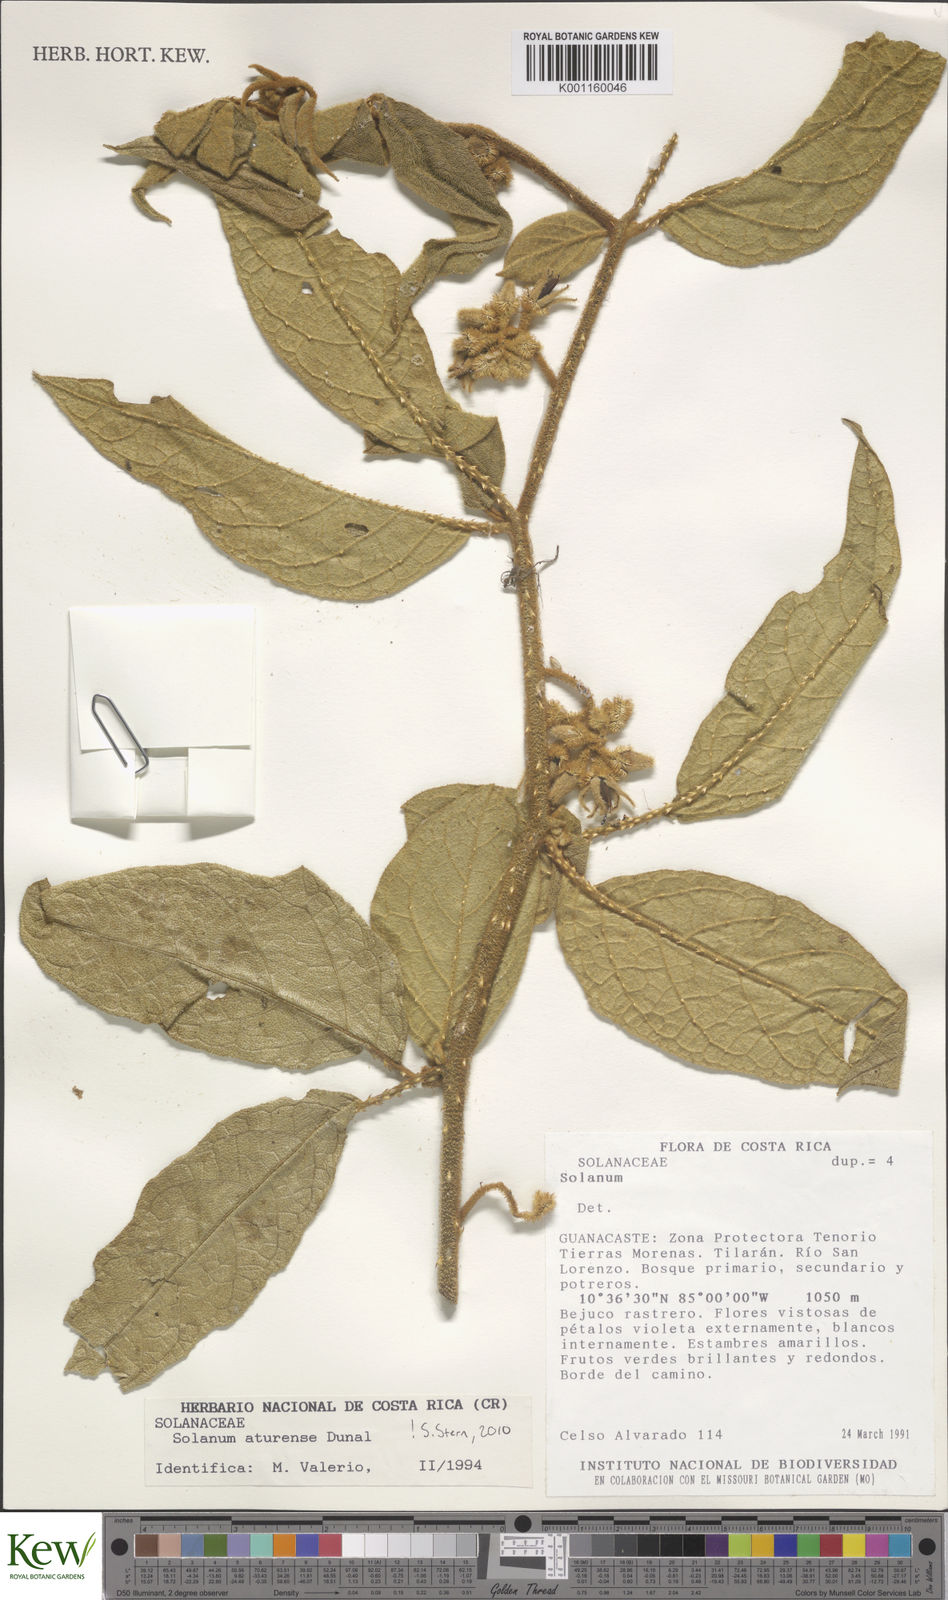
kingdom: Plantae
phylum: Tracheophyta
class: Magnoliopsida
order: Solanales
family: Solanaceae
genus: Solanum
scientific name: Solanum aturense
